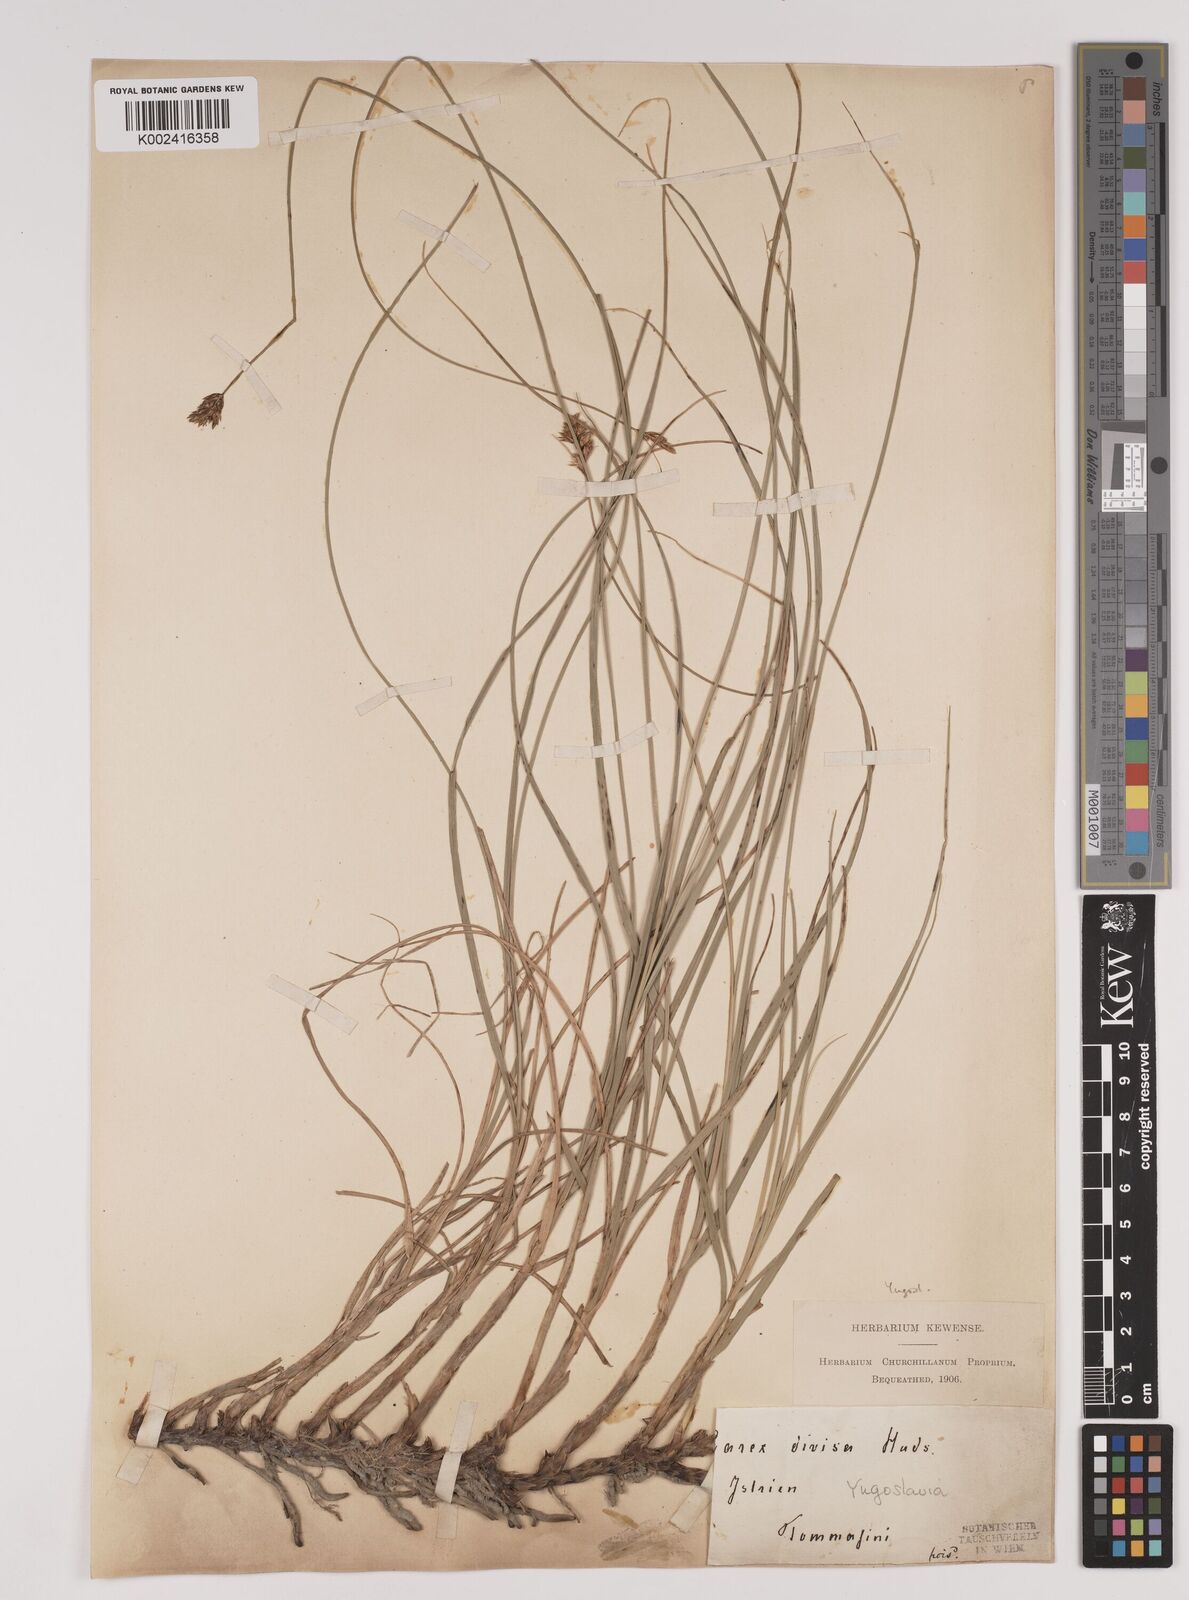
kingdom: Plantae
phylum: Tracheophyta
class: Liliopsida
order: Poales
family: Cyperaceae
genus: Carex
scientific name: Carex divisa
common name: Divided sedge
